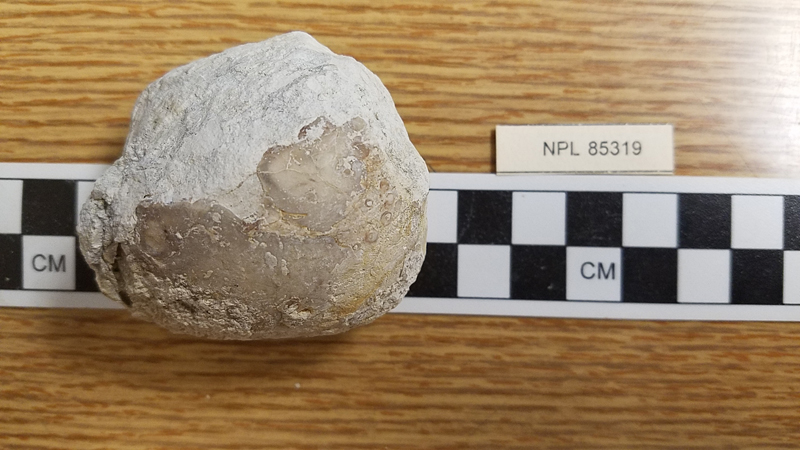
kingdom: Animalia
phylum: Mollusca
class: Bivalvia
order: Cardiida
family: Cardiidae
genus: Protocardia
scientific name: Protocardia
